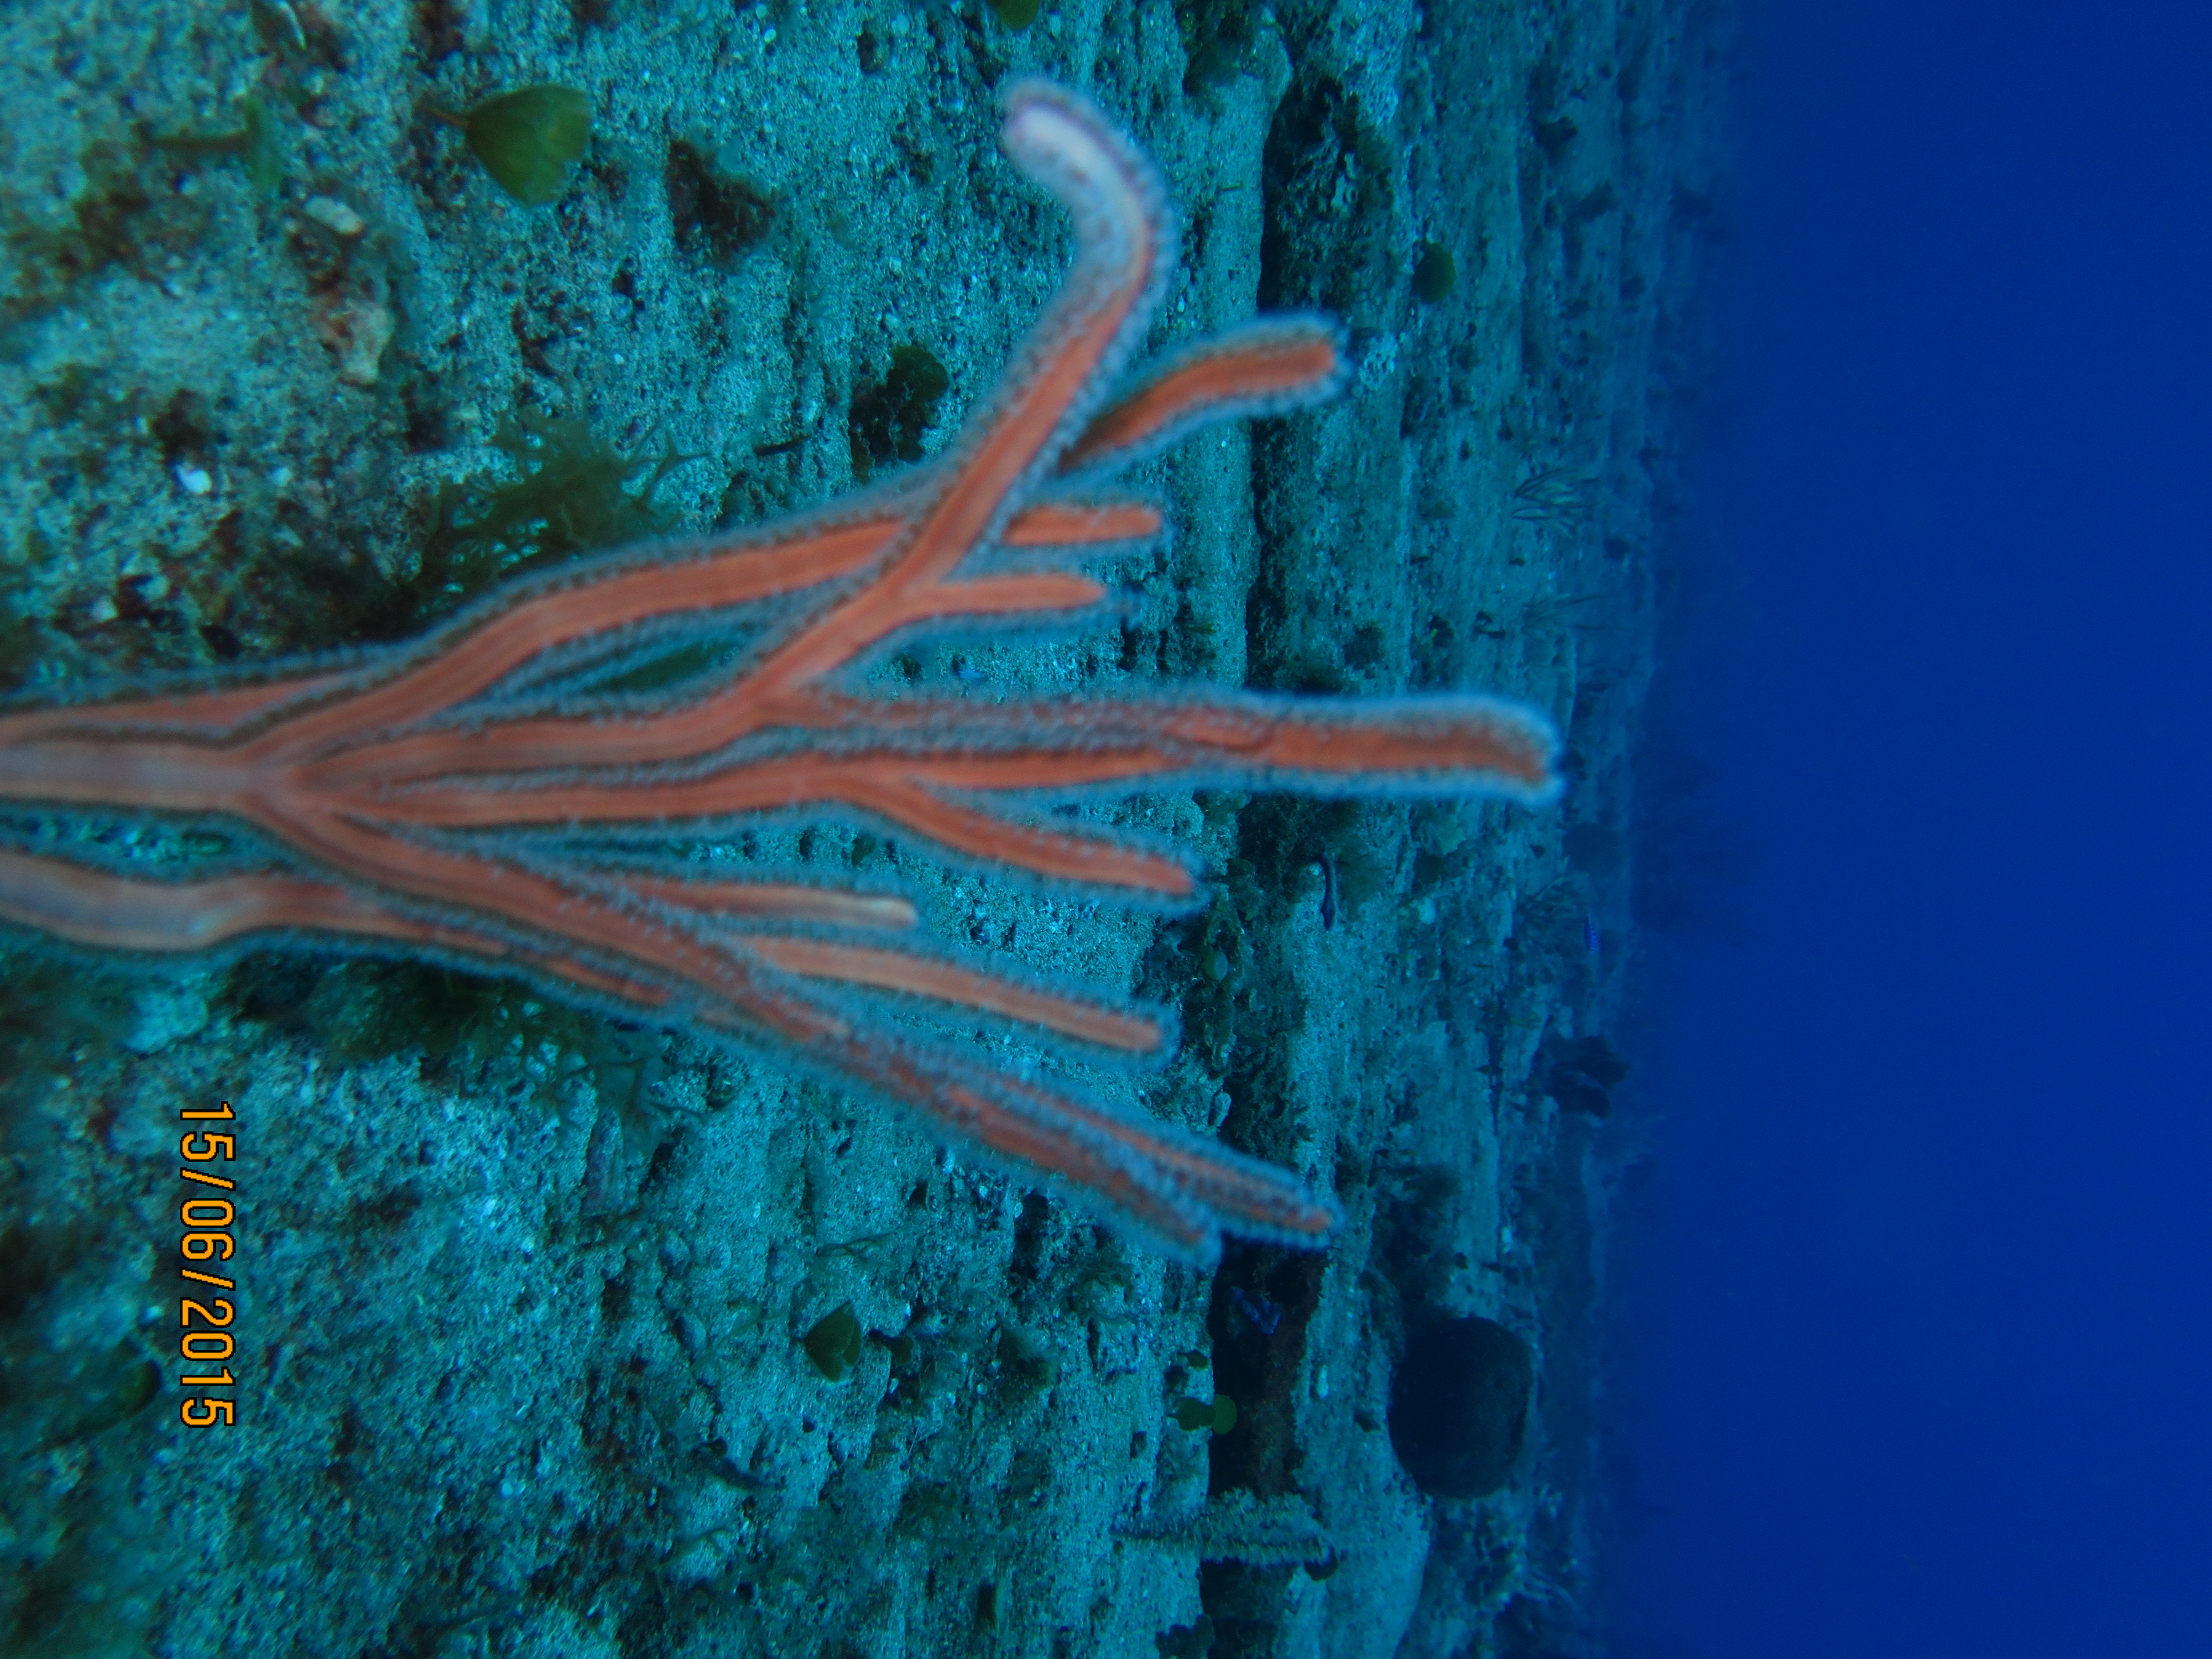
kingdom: Animalia
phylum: Cnidaria
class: Anthozoa
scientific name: Anthozoa
